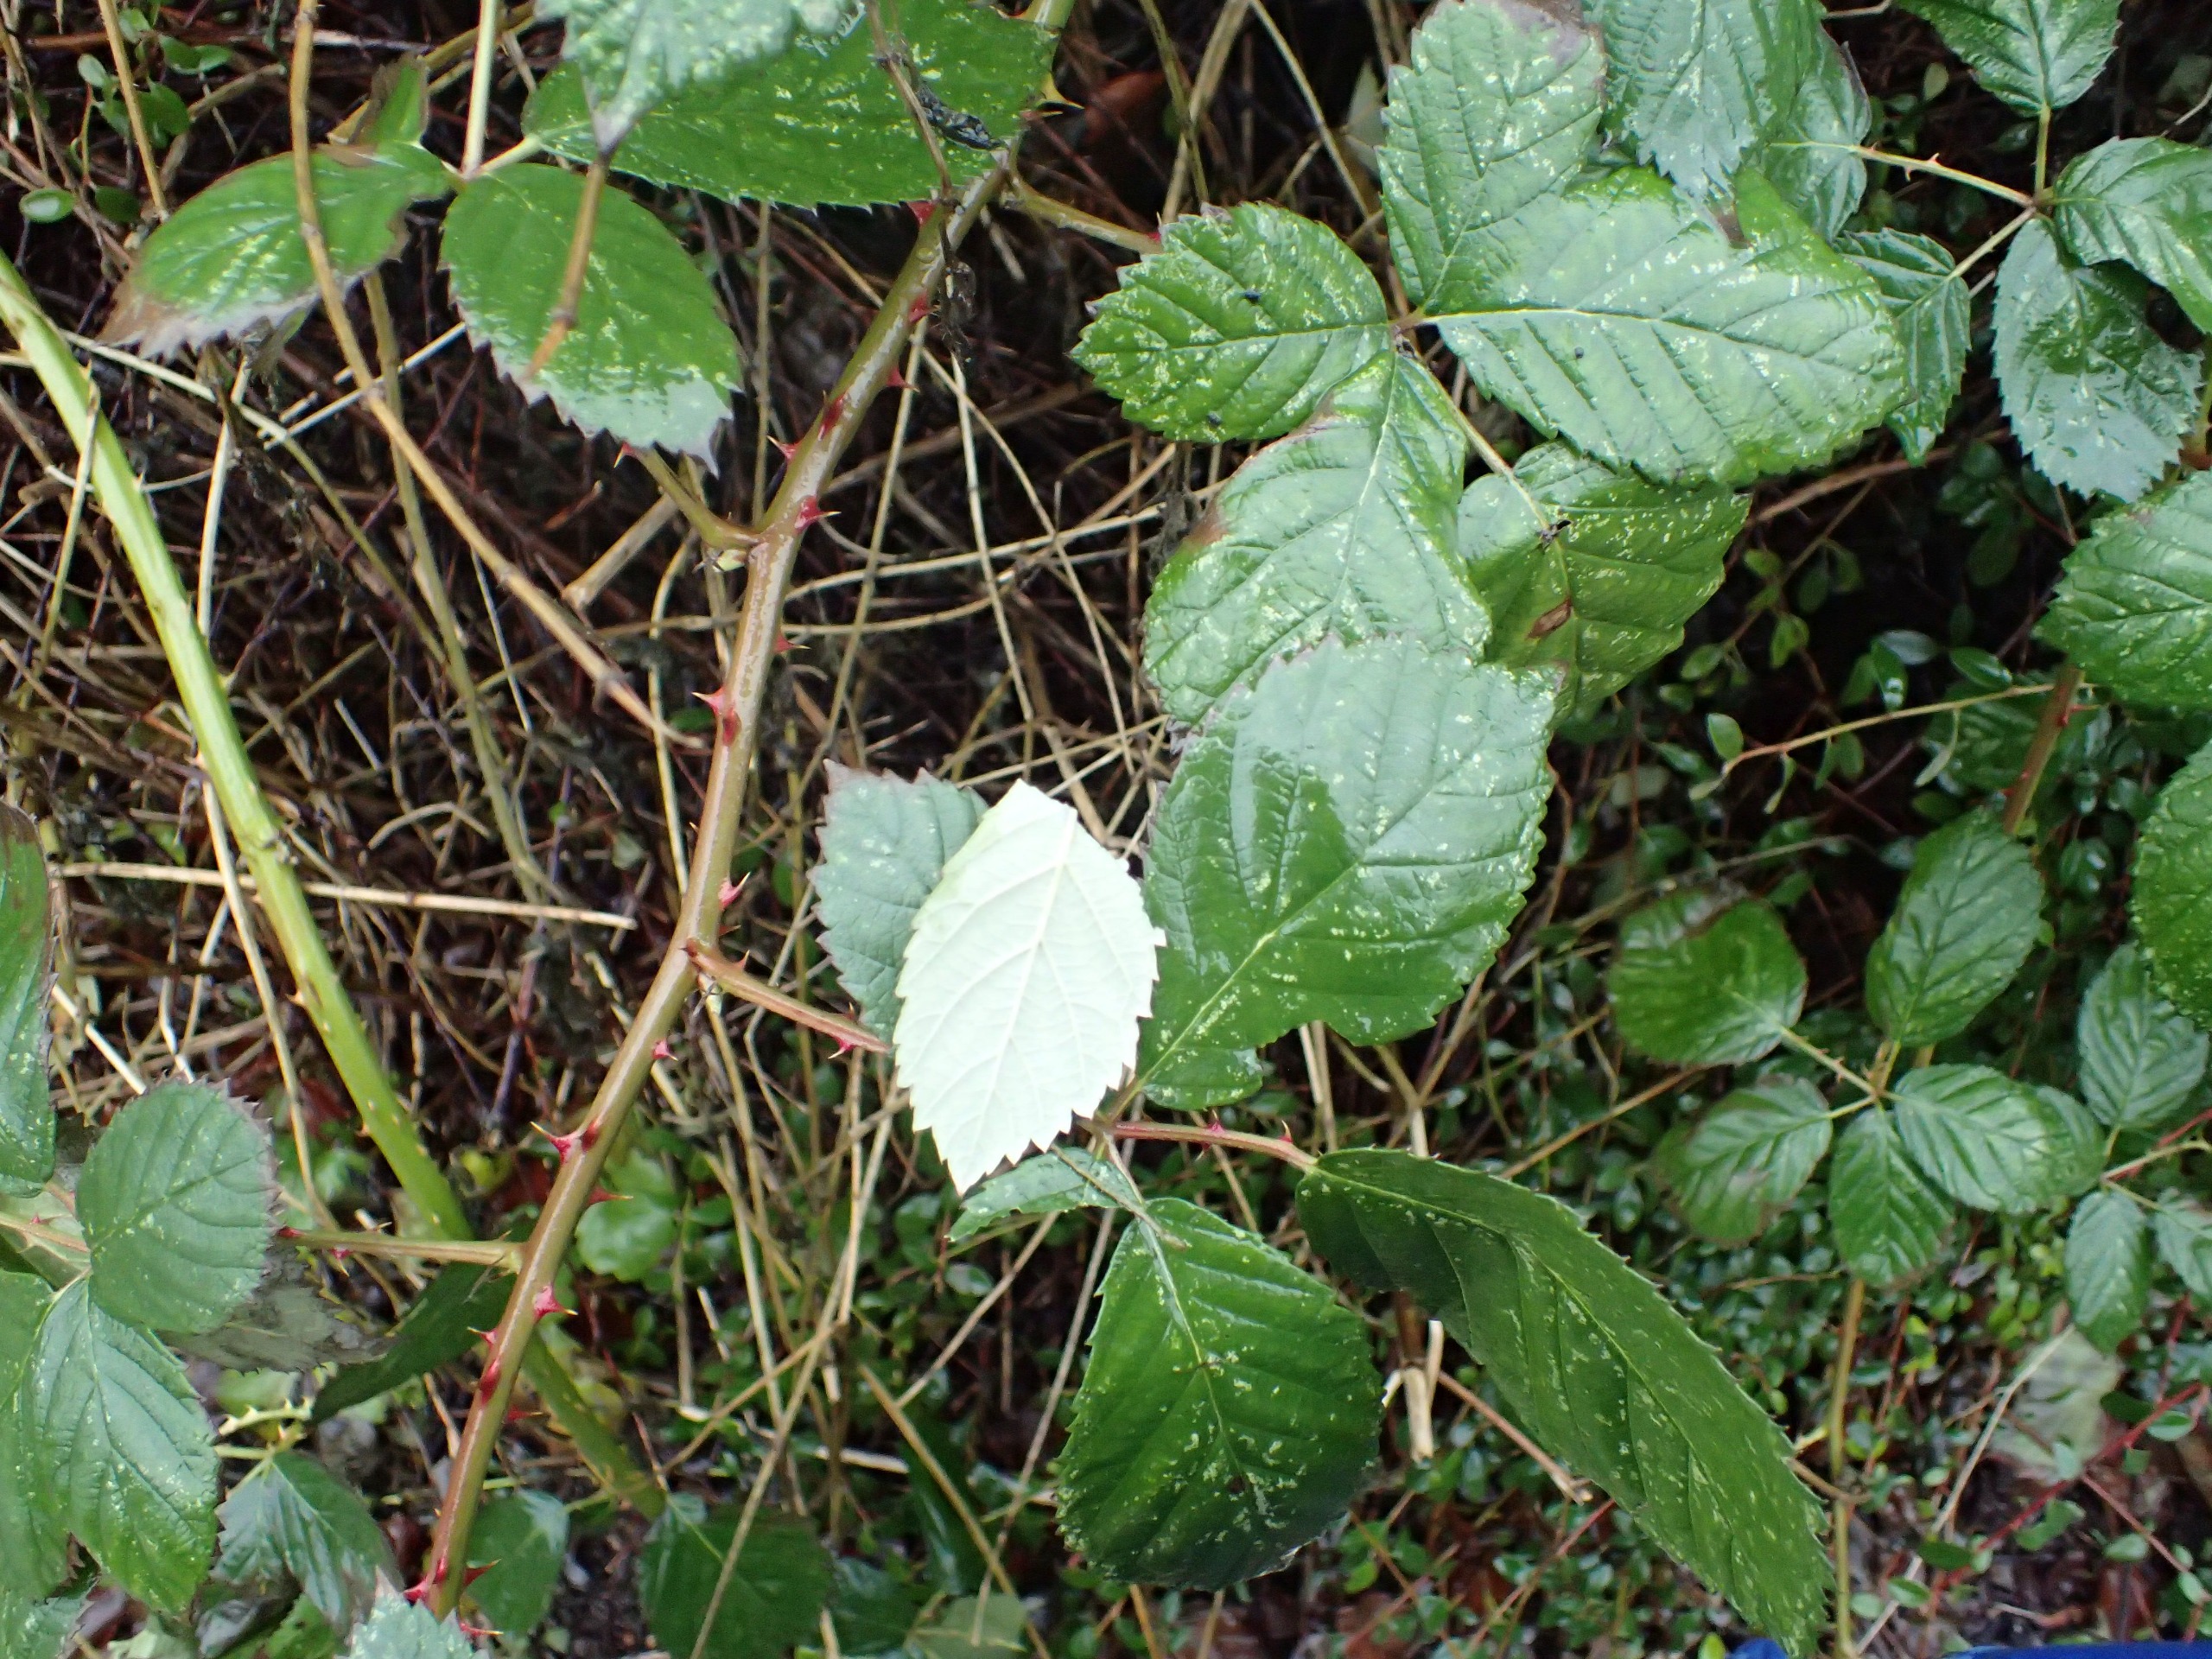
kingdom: Plantae
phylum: Tracheophyta
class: Magnoliopsida
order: Rosales
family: Rosaceae
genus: Rubus
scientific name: Rubus armeniacus
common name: Armensk brombær
